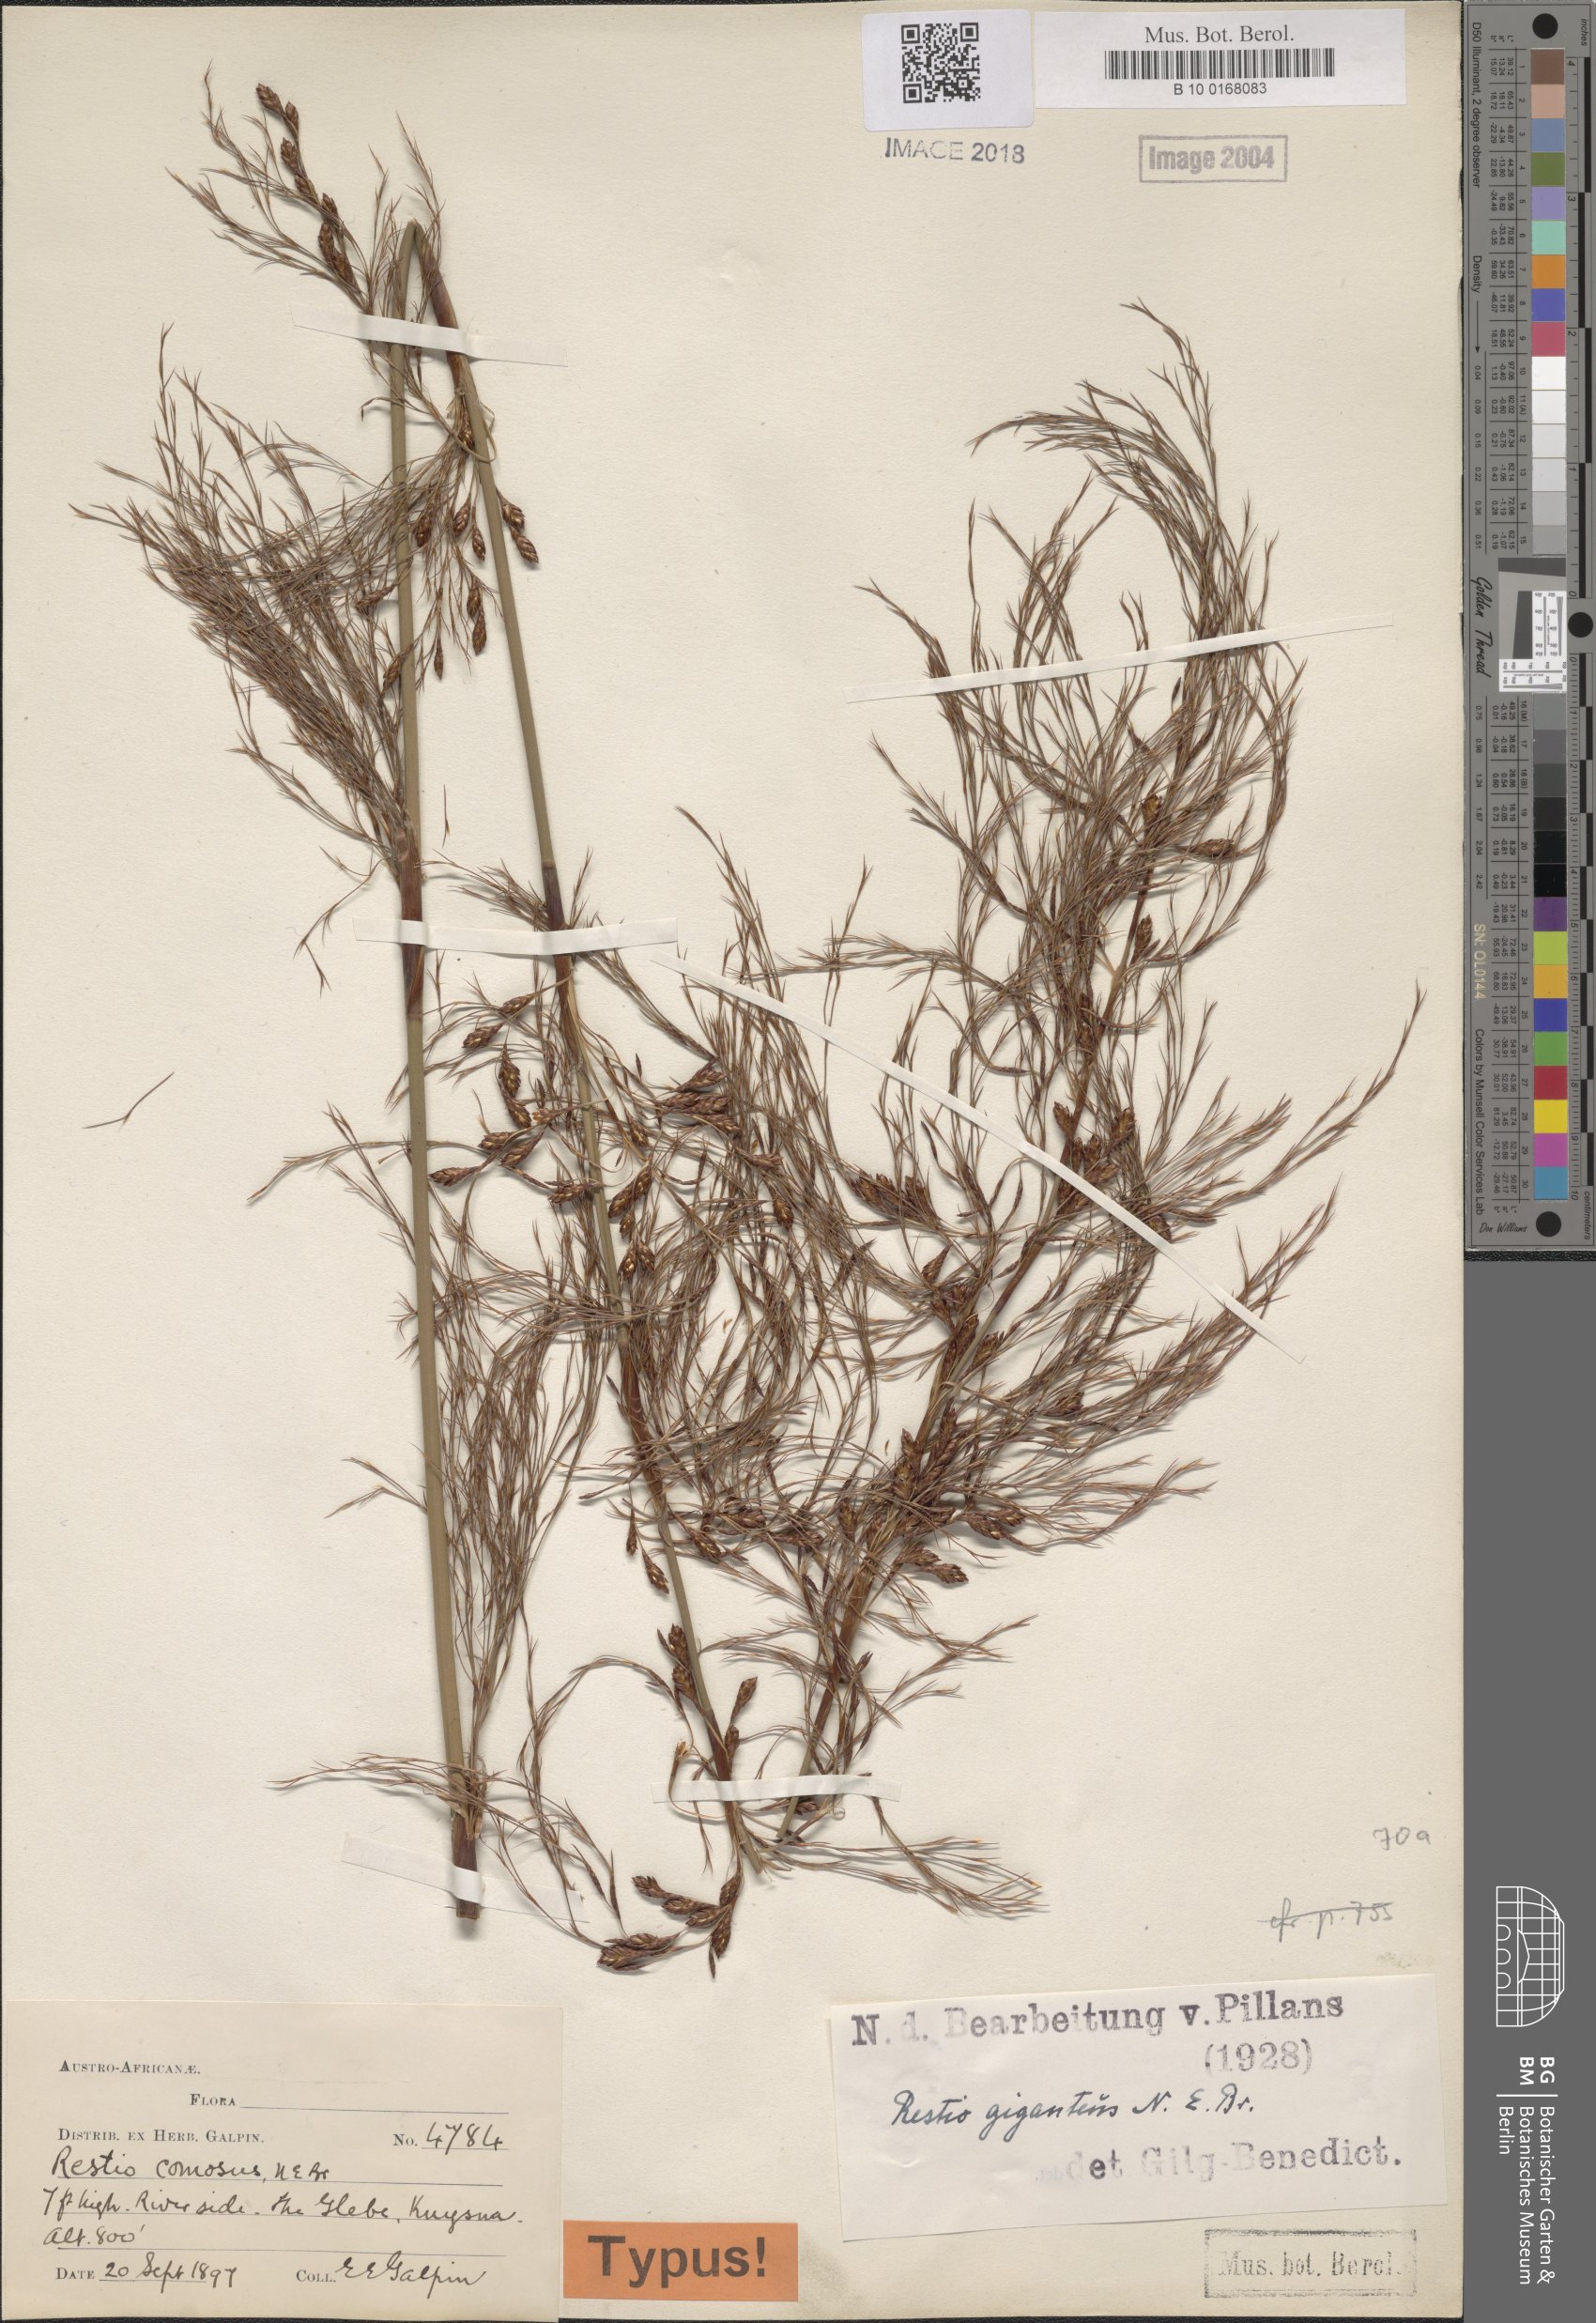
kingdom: Plantae
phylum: Tracheophyta
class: Liliopsida
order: Poales
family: Restionaceae
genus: Rhodocoma
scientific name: Rhodocoma gigantea
